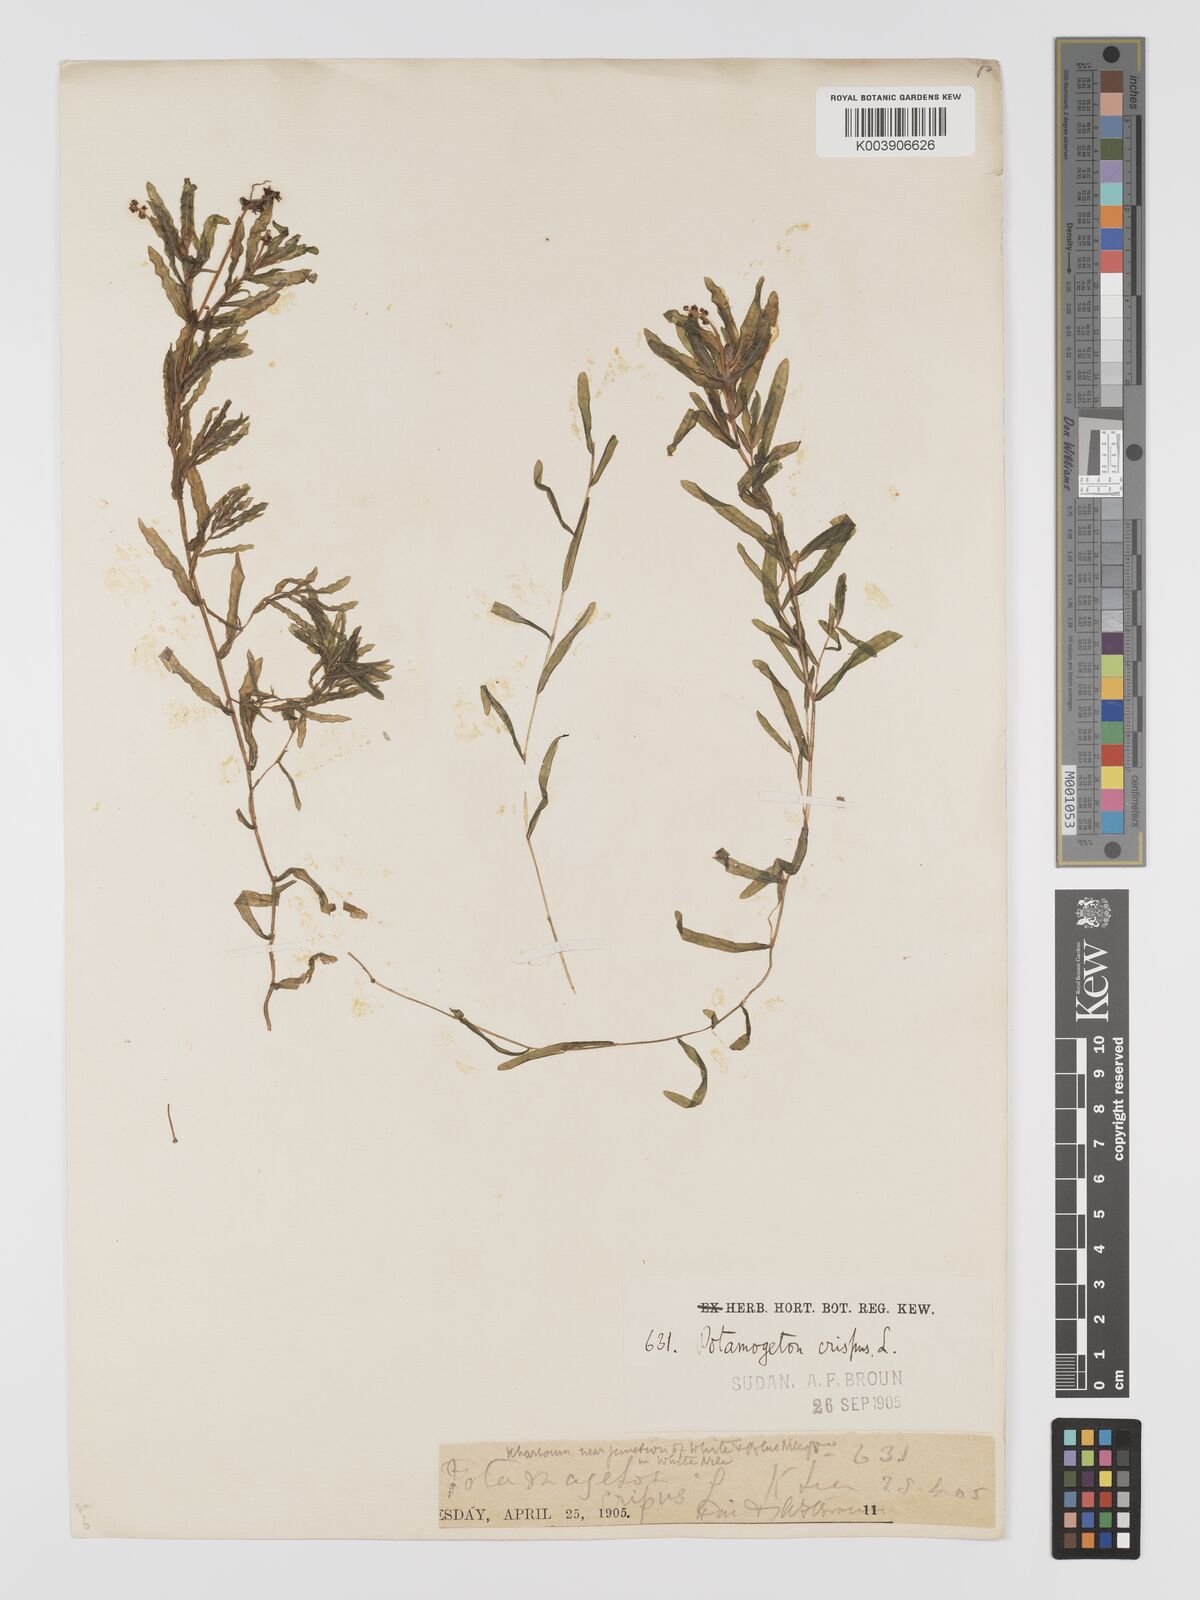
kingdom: Plantae
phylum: Tracheophyta
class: Liliopsida
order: Alismatales
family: Potamogetonaceae
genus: Potamogeton
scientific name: Potamogeton crispus
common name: Curled pondweed
